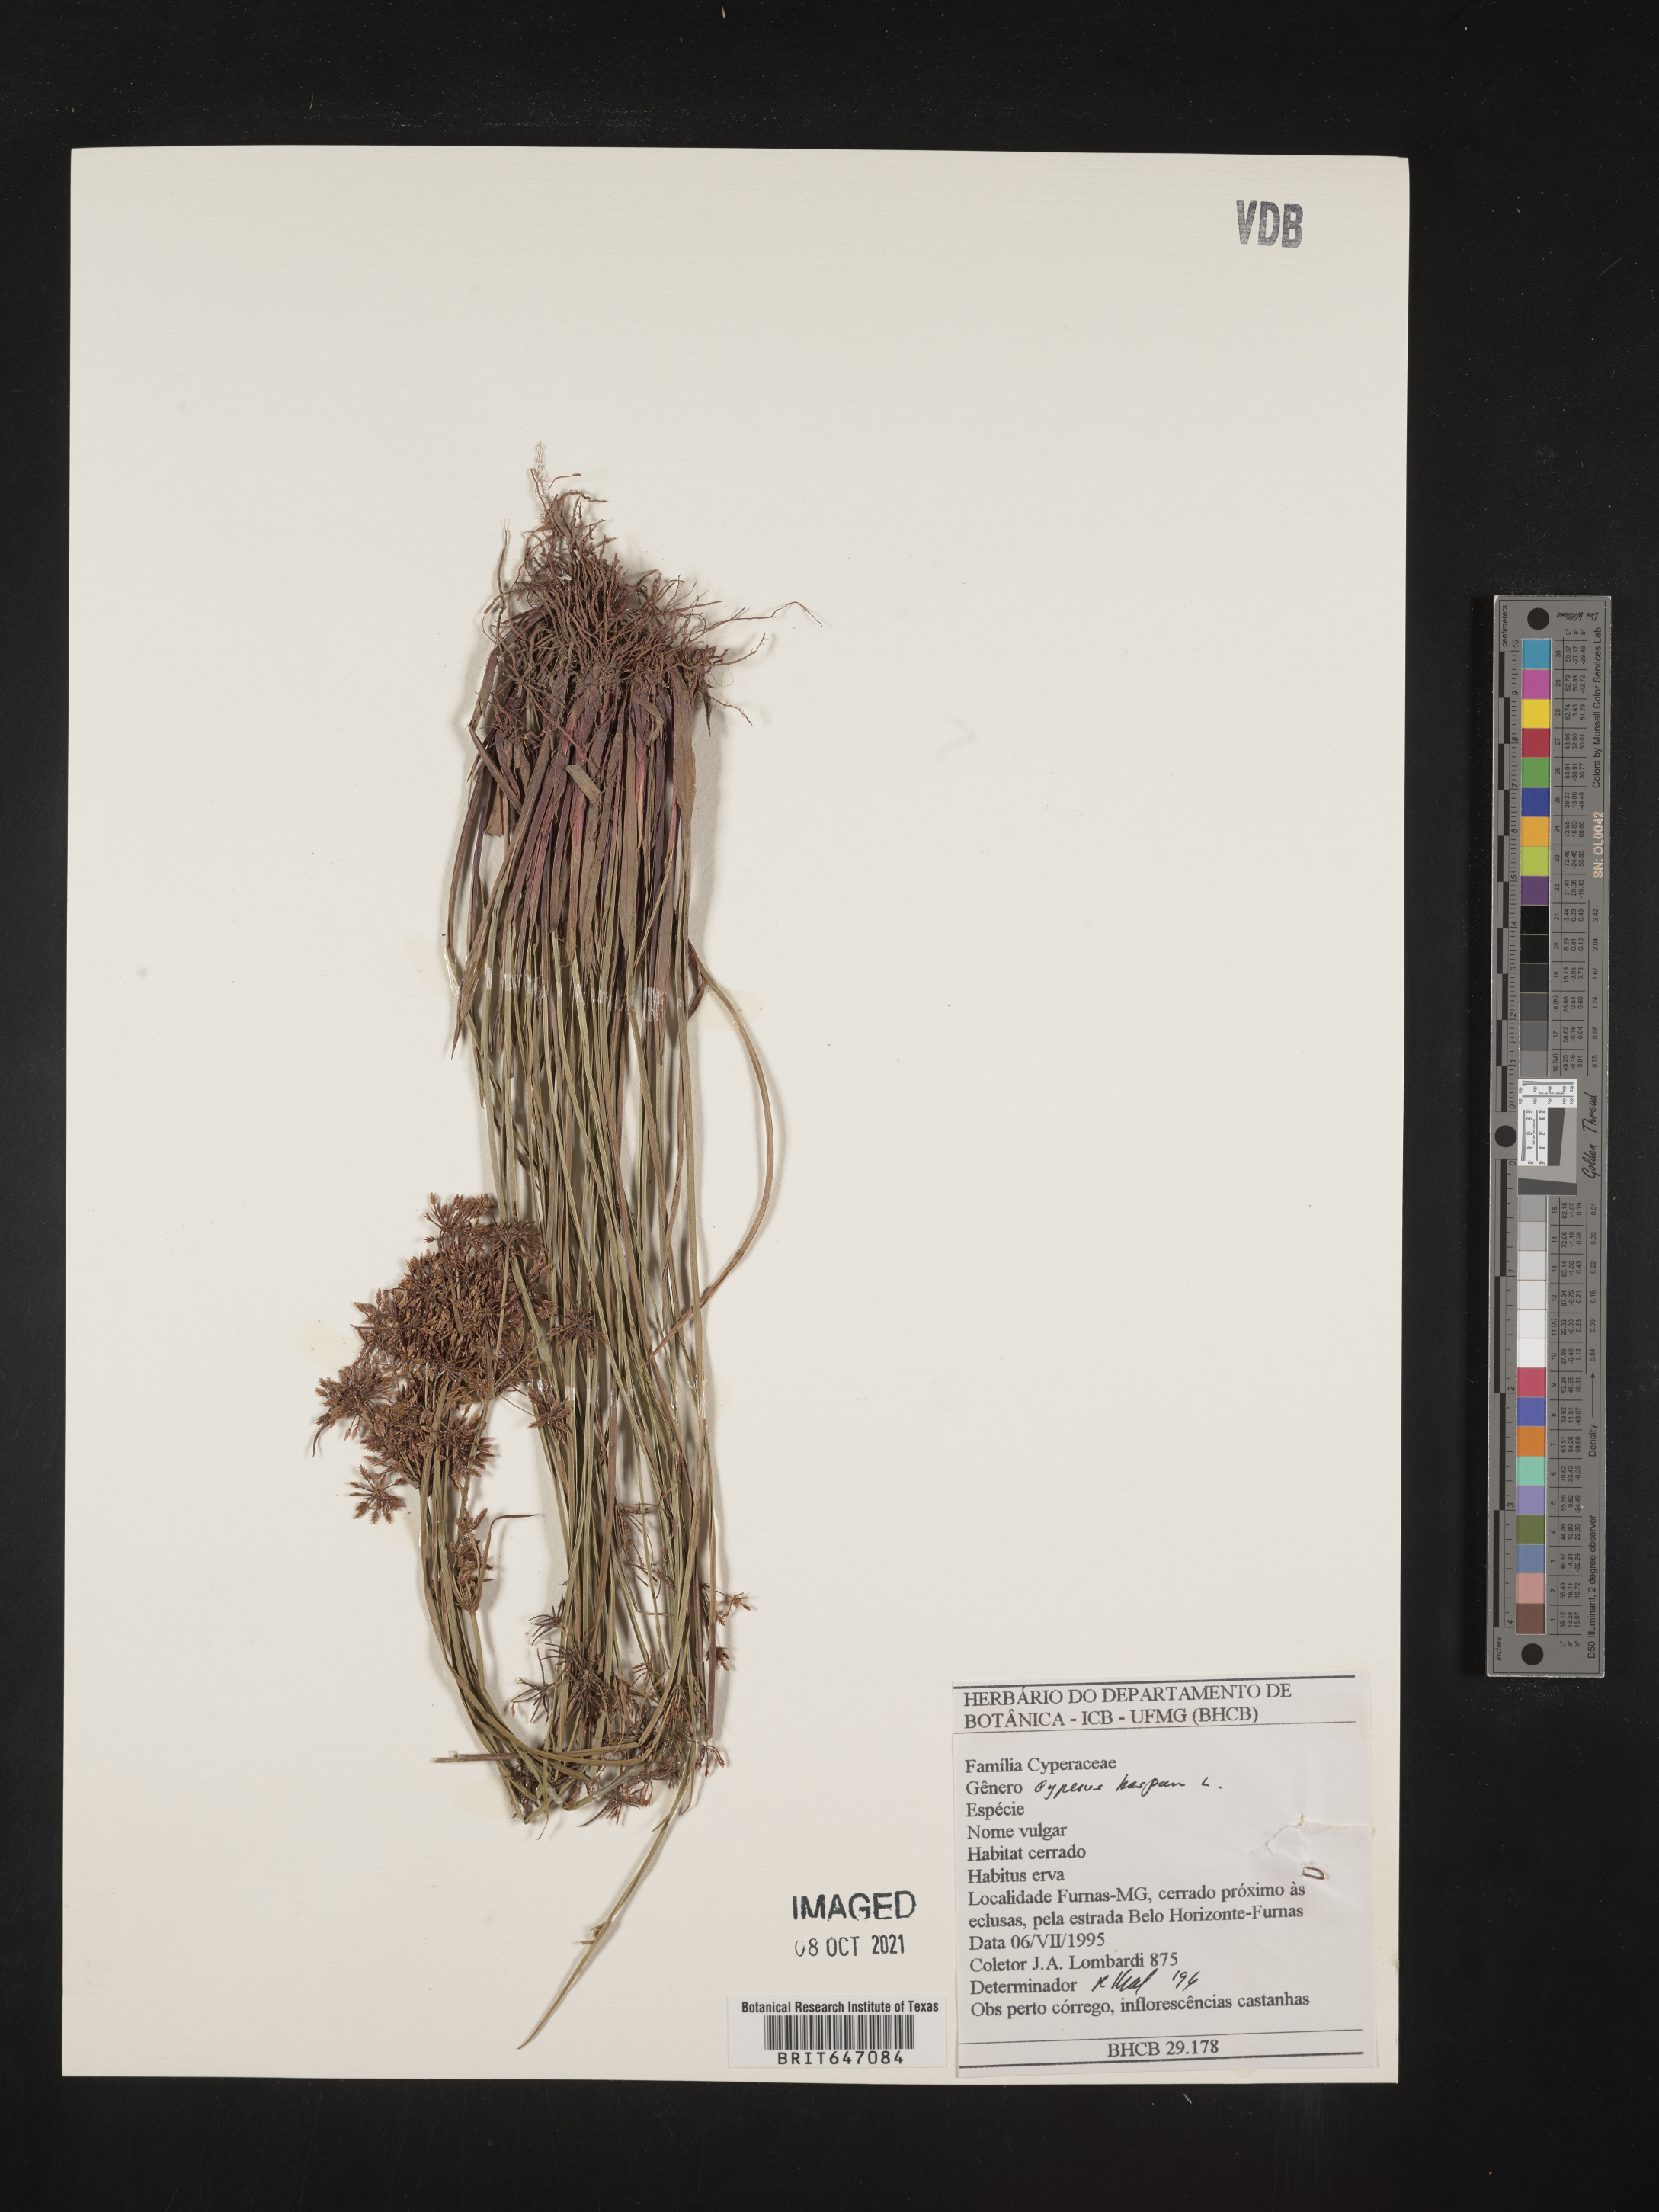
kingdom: Plantae
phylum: Tracheophyta
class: Liliopsida
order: Poales
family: Cyperaceae
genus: Cyperus
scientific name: Cyperus haspan
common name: Haspan flatsedge
